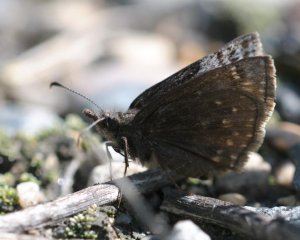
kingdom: Animalia
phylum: Arthropoda
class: Insecta
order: Lepidoptera
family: Hesperiidae
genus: Erynnis
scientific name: Erynnis icelus
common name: Dreamy Duskywing
